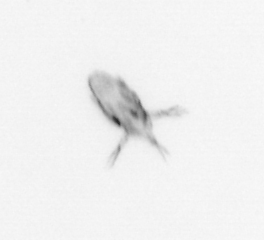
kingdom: Animalia
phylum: Arthropoda
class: Maxillopoda
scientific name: Maxillopoda
